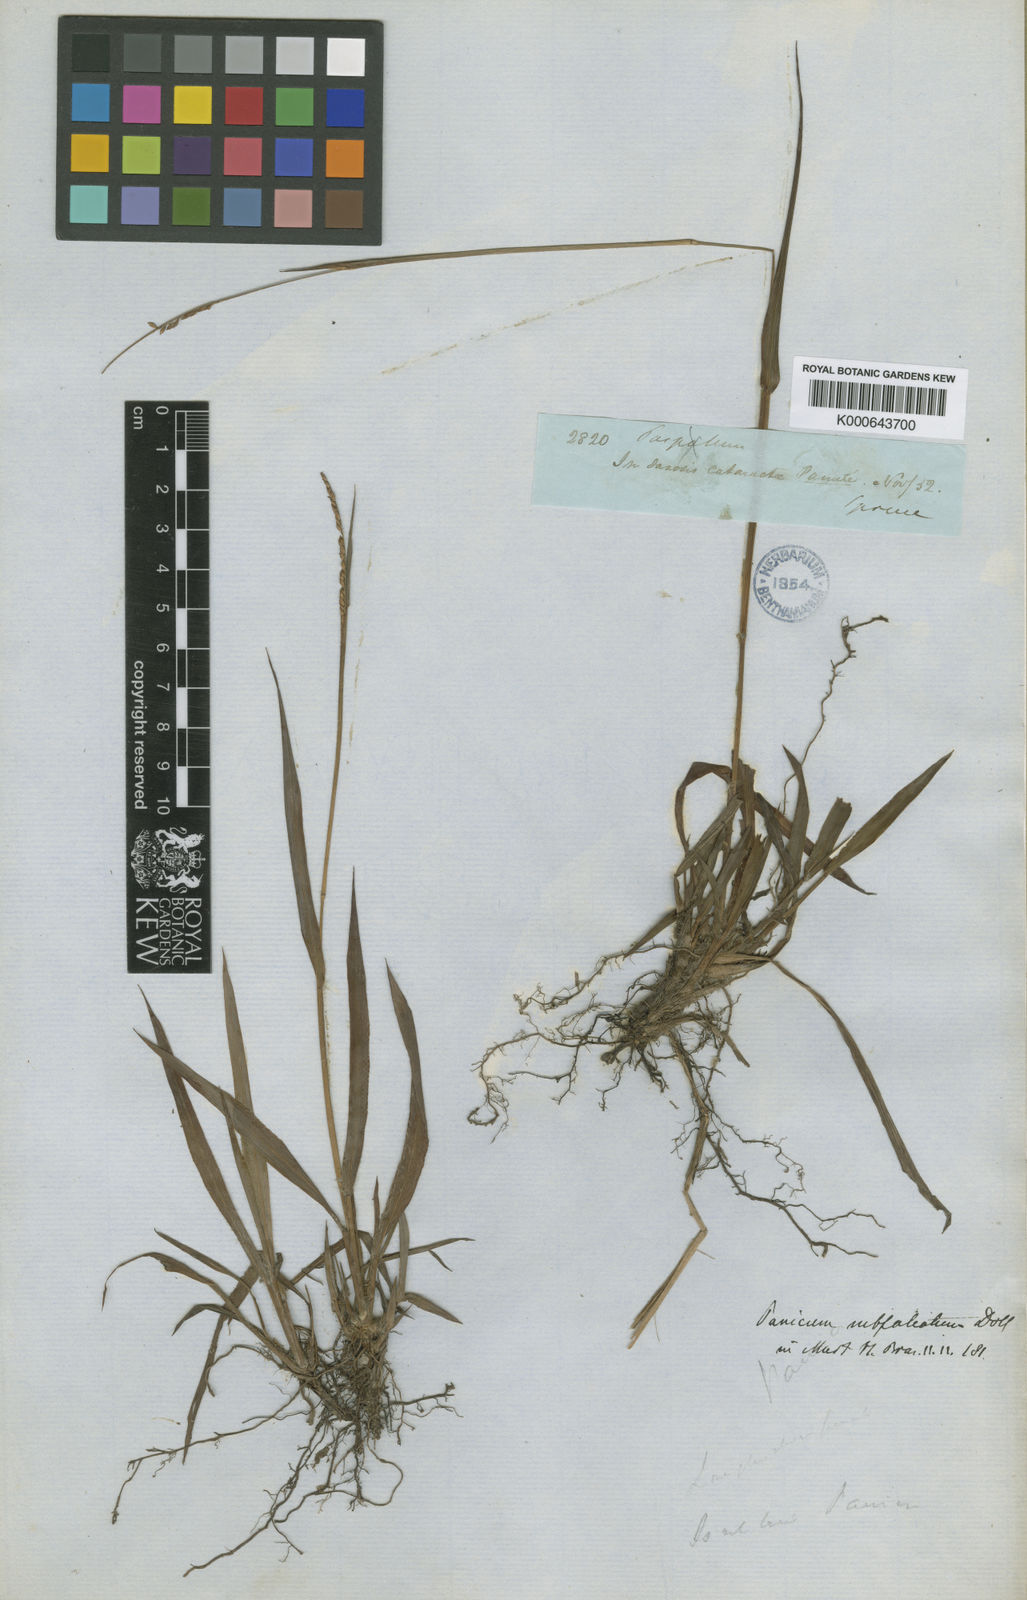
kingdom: Plantae
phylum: Tracheophyta
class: Liliopsida
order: Poales
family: Poaceae
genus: Paspalum
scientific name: Paspalum subfalcatum
